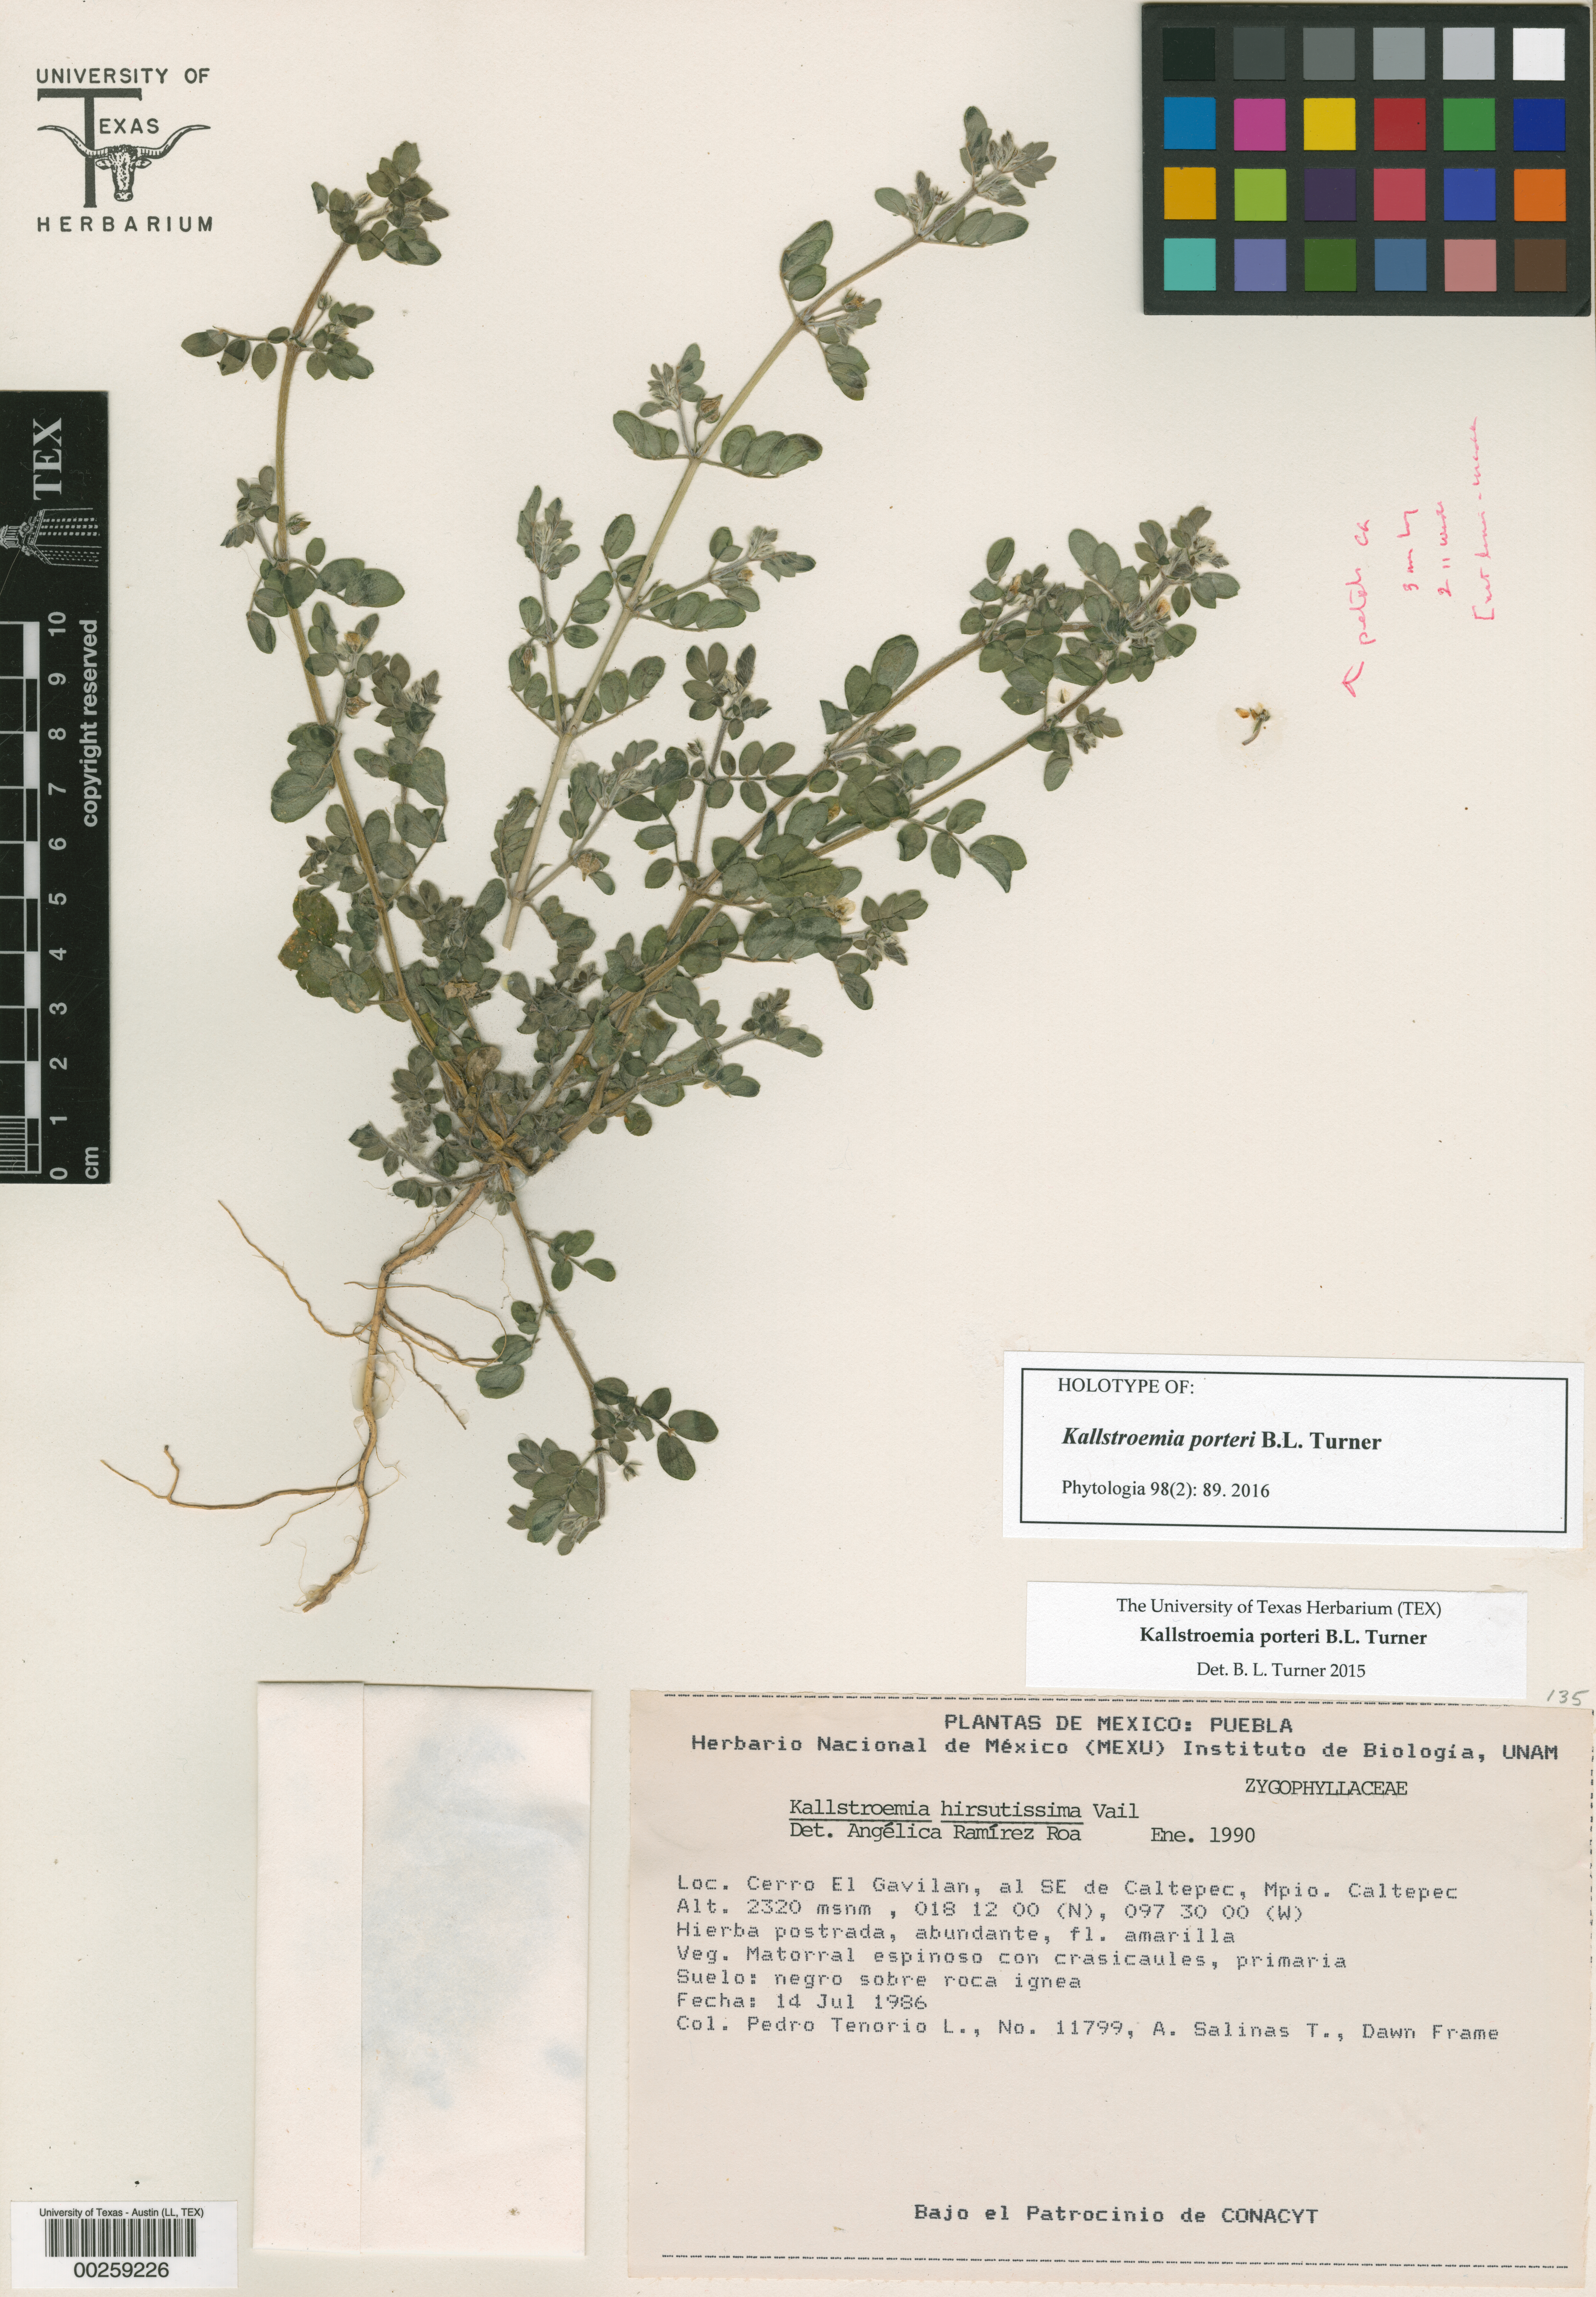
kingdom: Plantae
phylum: Tracheophyta
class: Magnoliopsida
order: Zygophyllales
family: Zygophyllaceae
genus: Kallstroemia
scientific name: Kallstroemia hirsutissima
